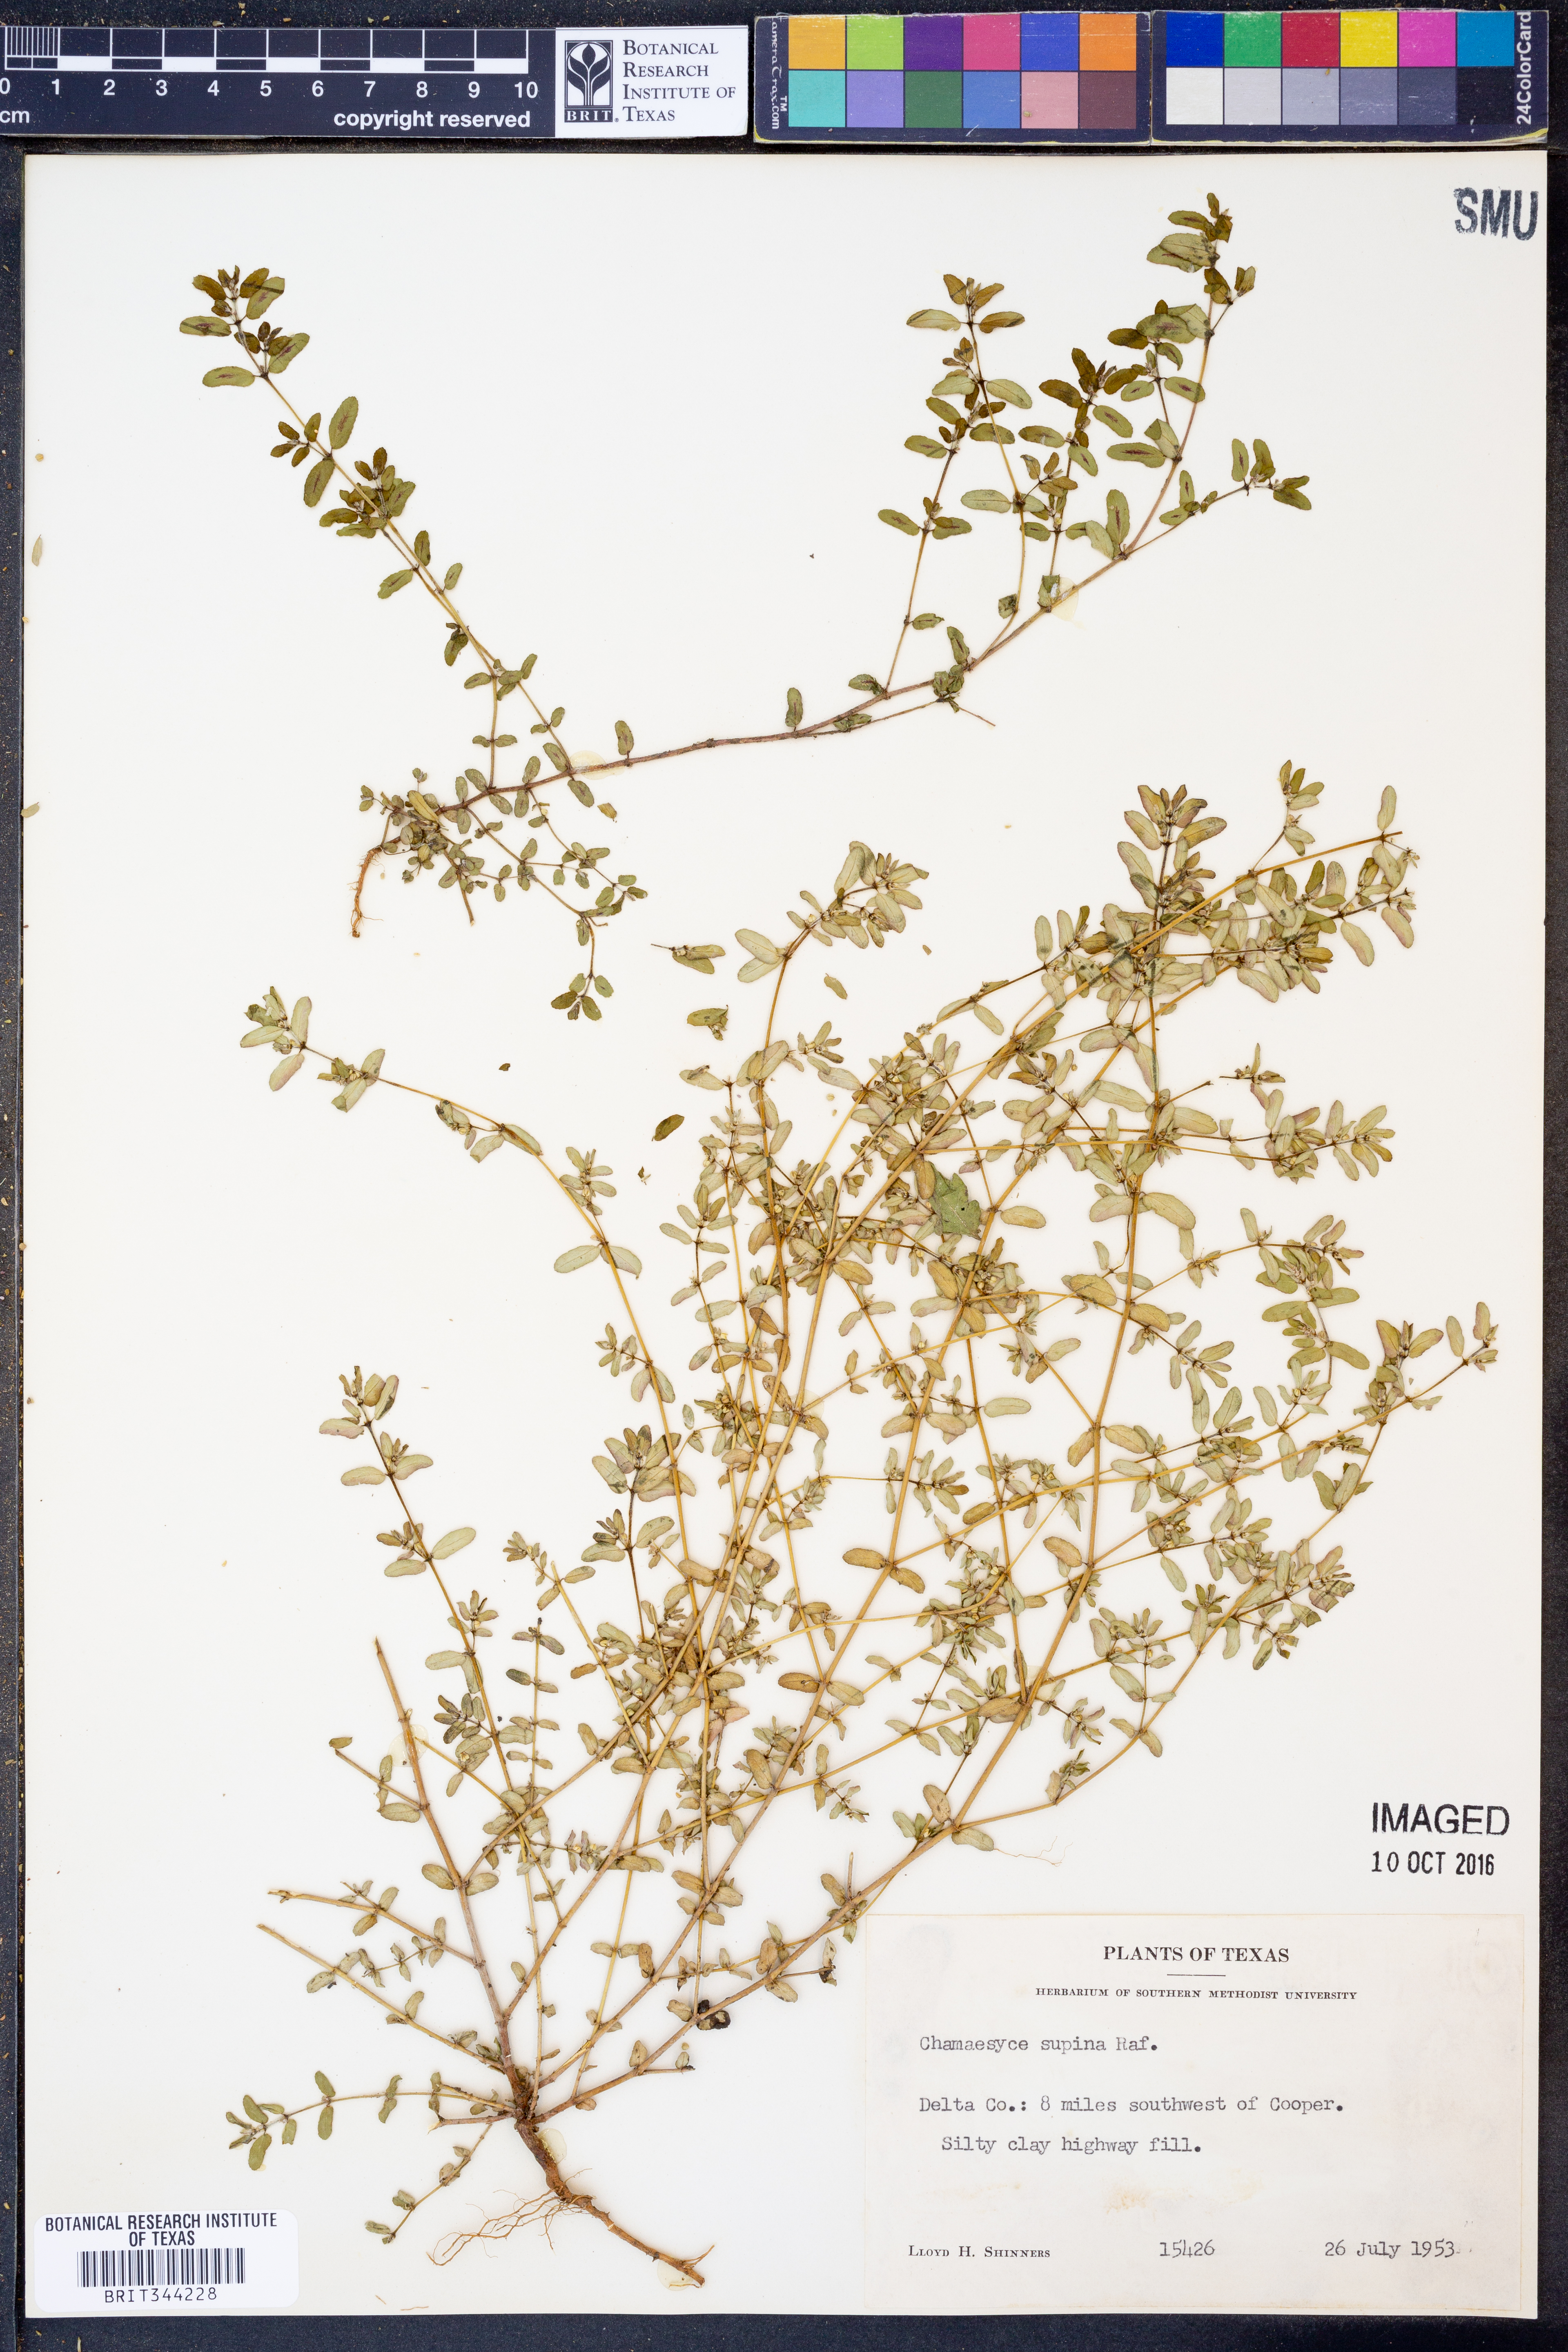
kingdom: Plantae
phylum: Tracheophyta
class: Magnoliopsida
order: Malpighiales
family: Euphorbiaceae
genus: Euphorbia
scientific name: Euphorbia maculata
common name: Spotted spurge
